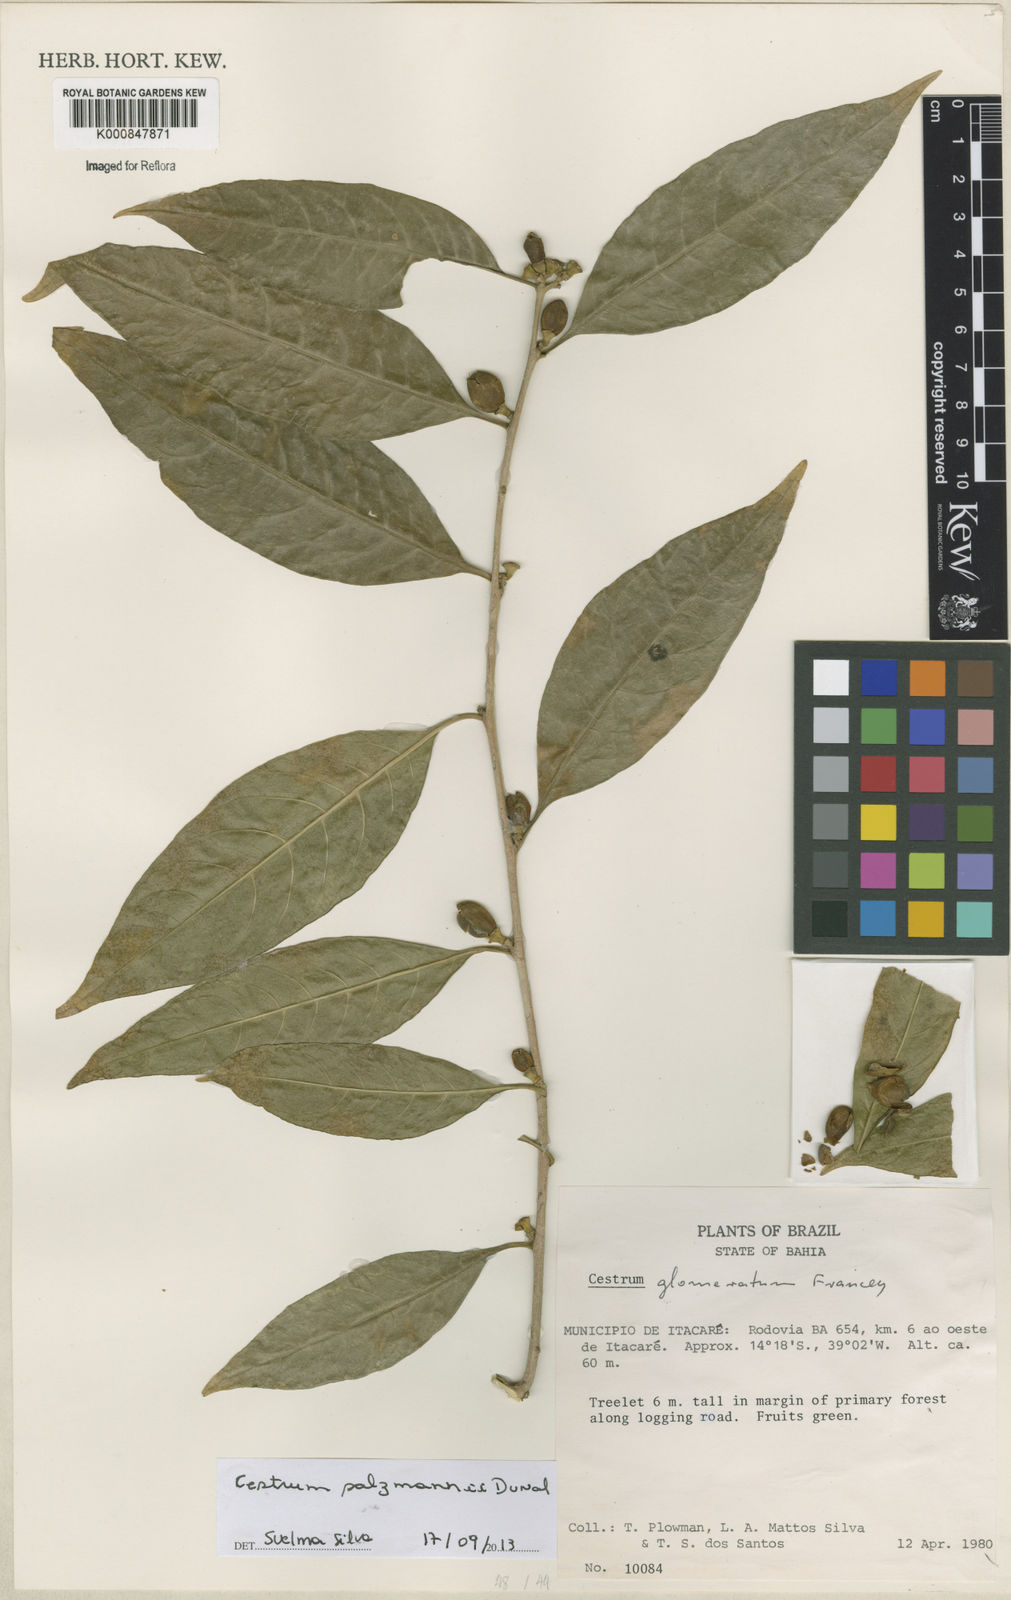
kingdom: Plantae
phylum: Tracheophyta
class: Magnoliopsida
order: Solanales
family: Solanaceae
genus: Cestrum
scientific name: Cestrum salzmannii
